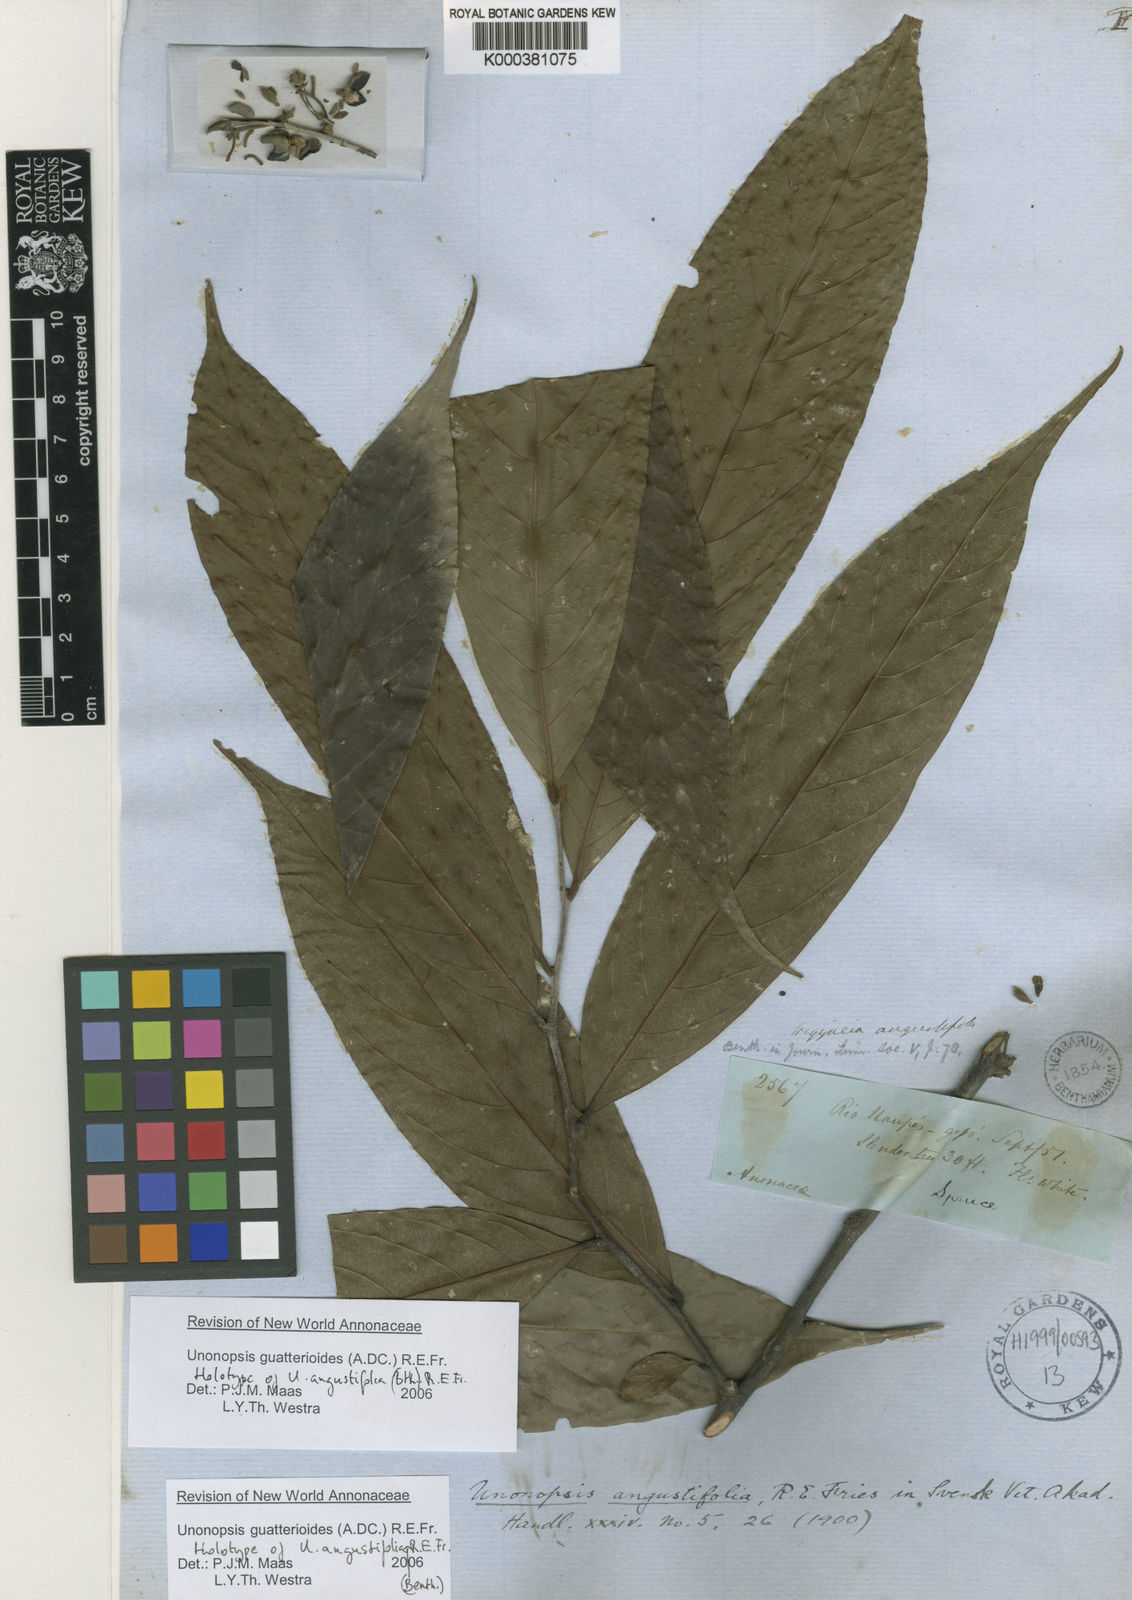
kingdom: Plantae
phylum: Tracheophyta
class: Magnoliopsida
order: Magnoliales
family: Annonaceae
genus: Unonopsis
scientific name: Unonopsis guatterioides
